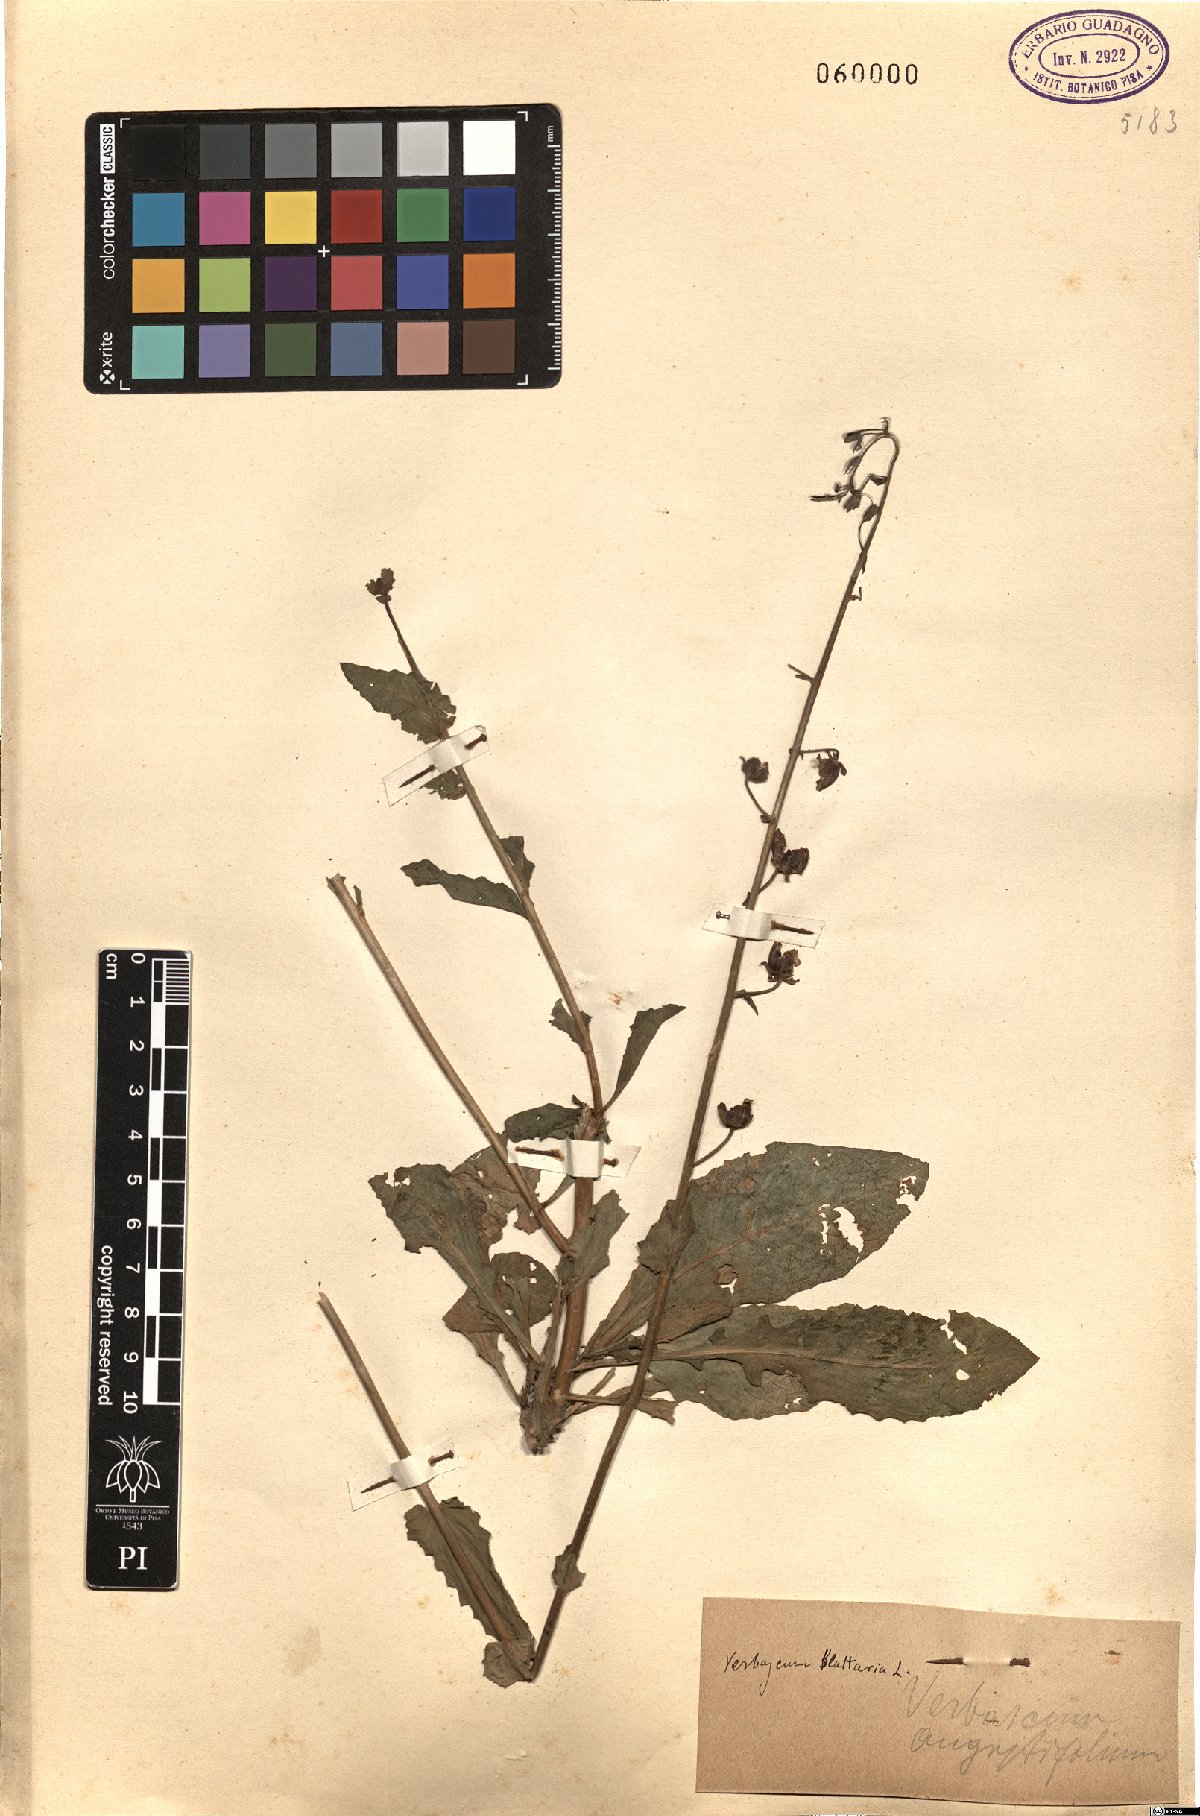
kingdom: Plantae
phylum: Tracheophyta
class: Magnoliopsida
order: Lamiales
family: Scrophulariaceae
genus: Verbascum
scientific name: Verbascum blattaria
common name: Moth mullein
